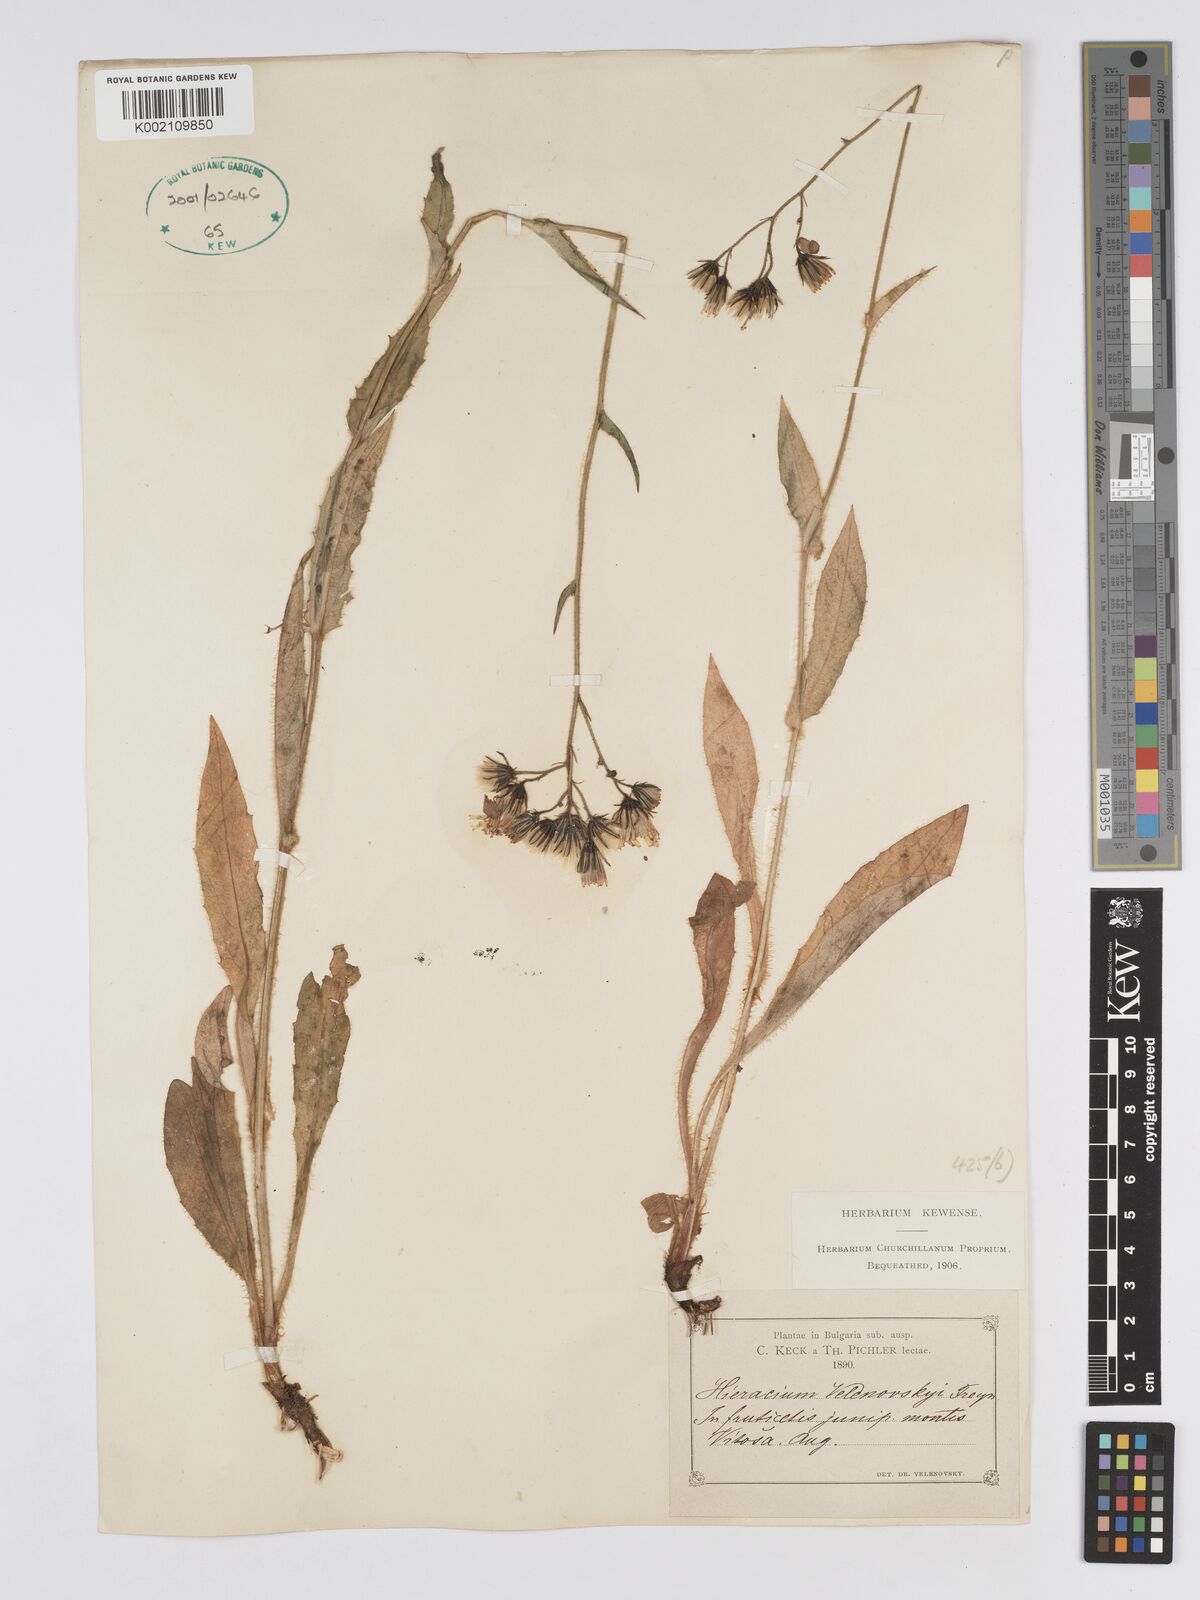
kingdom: Plantae
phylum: Tracheophyta
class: Magnoliopsida
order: Asterales
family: Asteraceae
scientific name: Asteraceae
